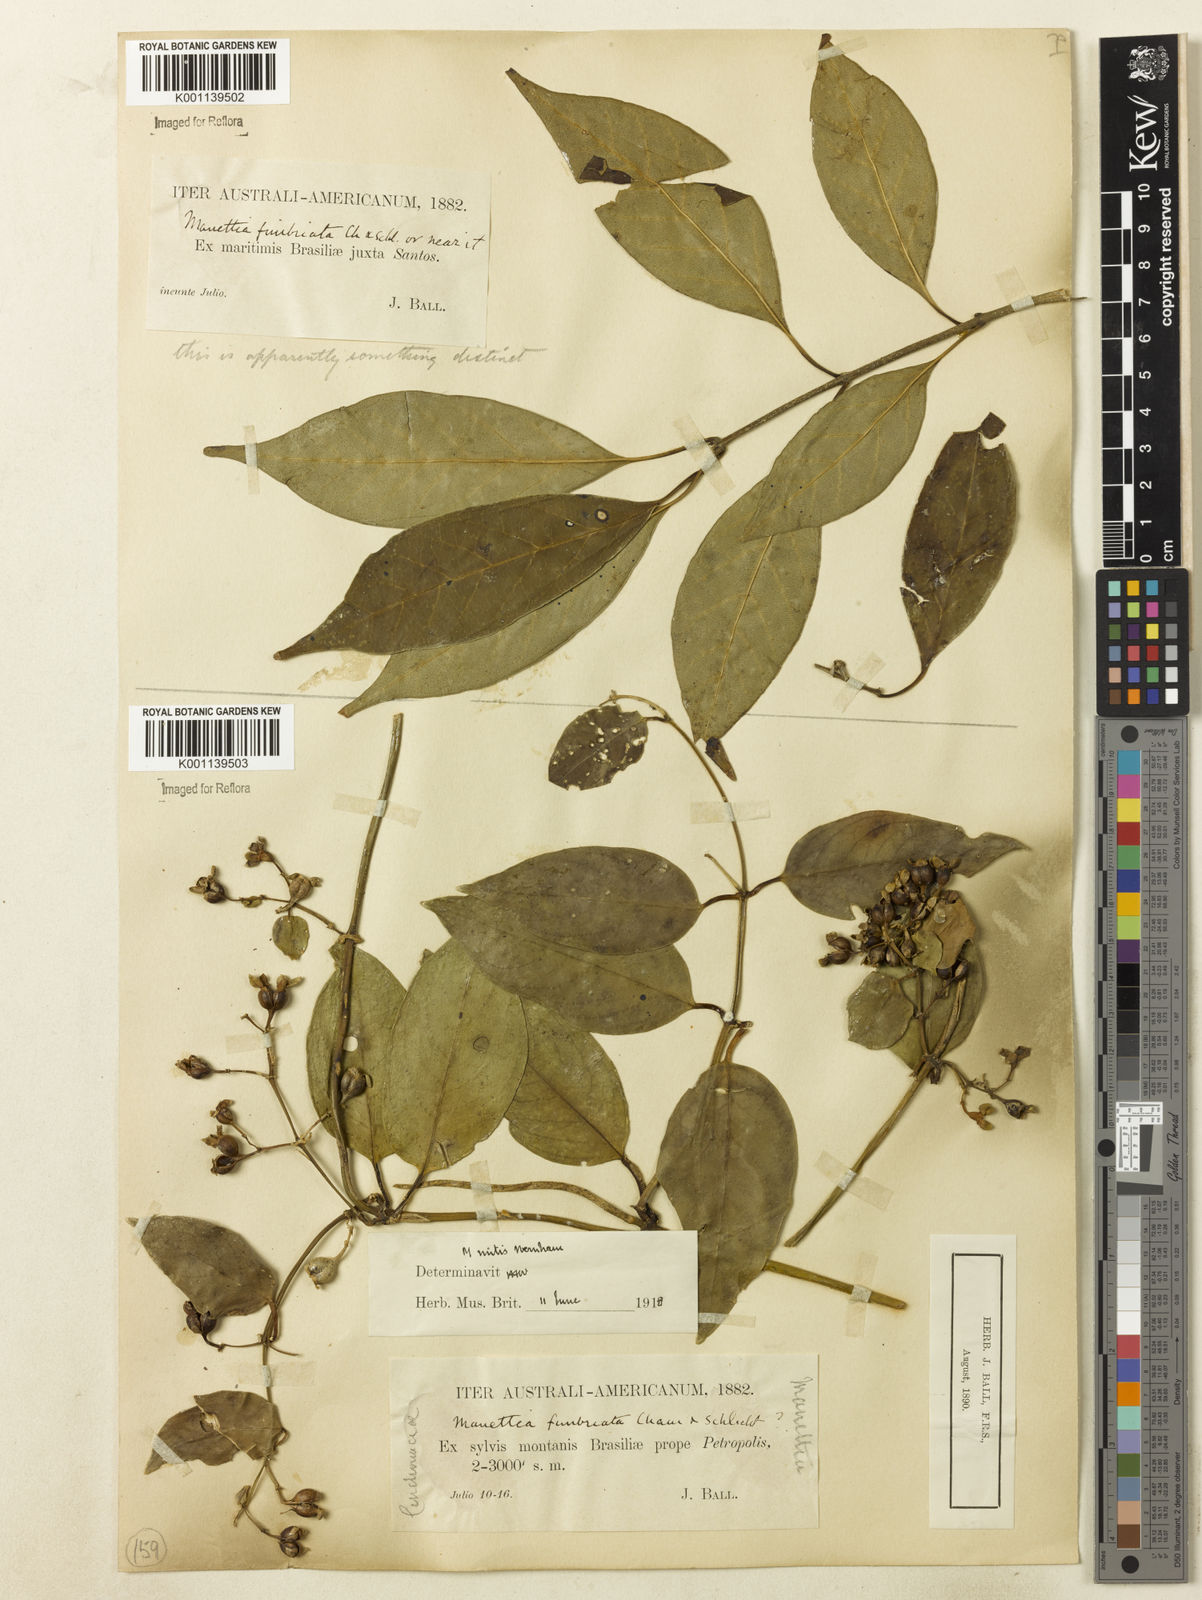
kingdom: Plantae
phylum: Tracheophyta
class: Magnoliopsida
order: Gentianales
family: Rubiaceae
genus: Manettia
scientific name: Manettia mitis
